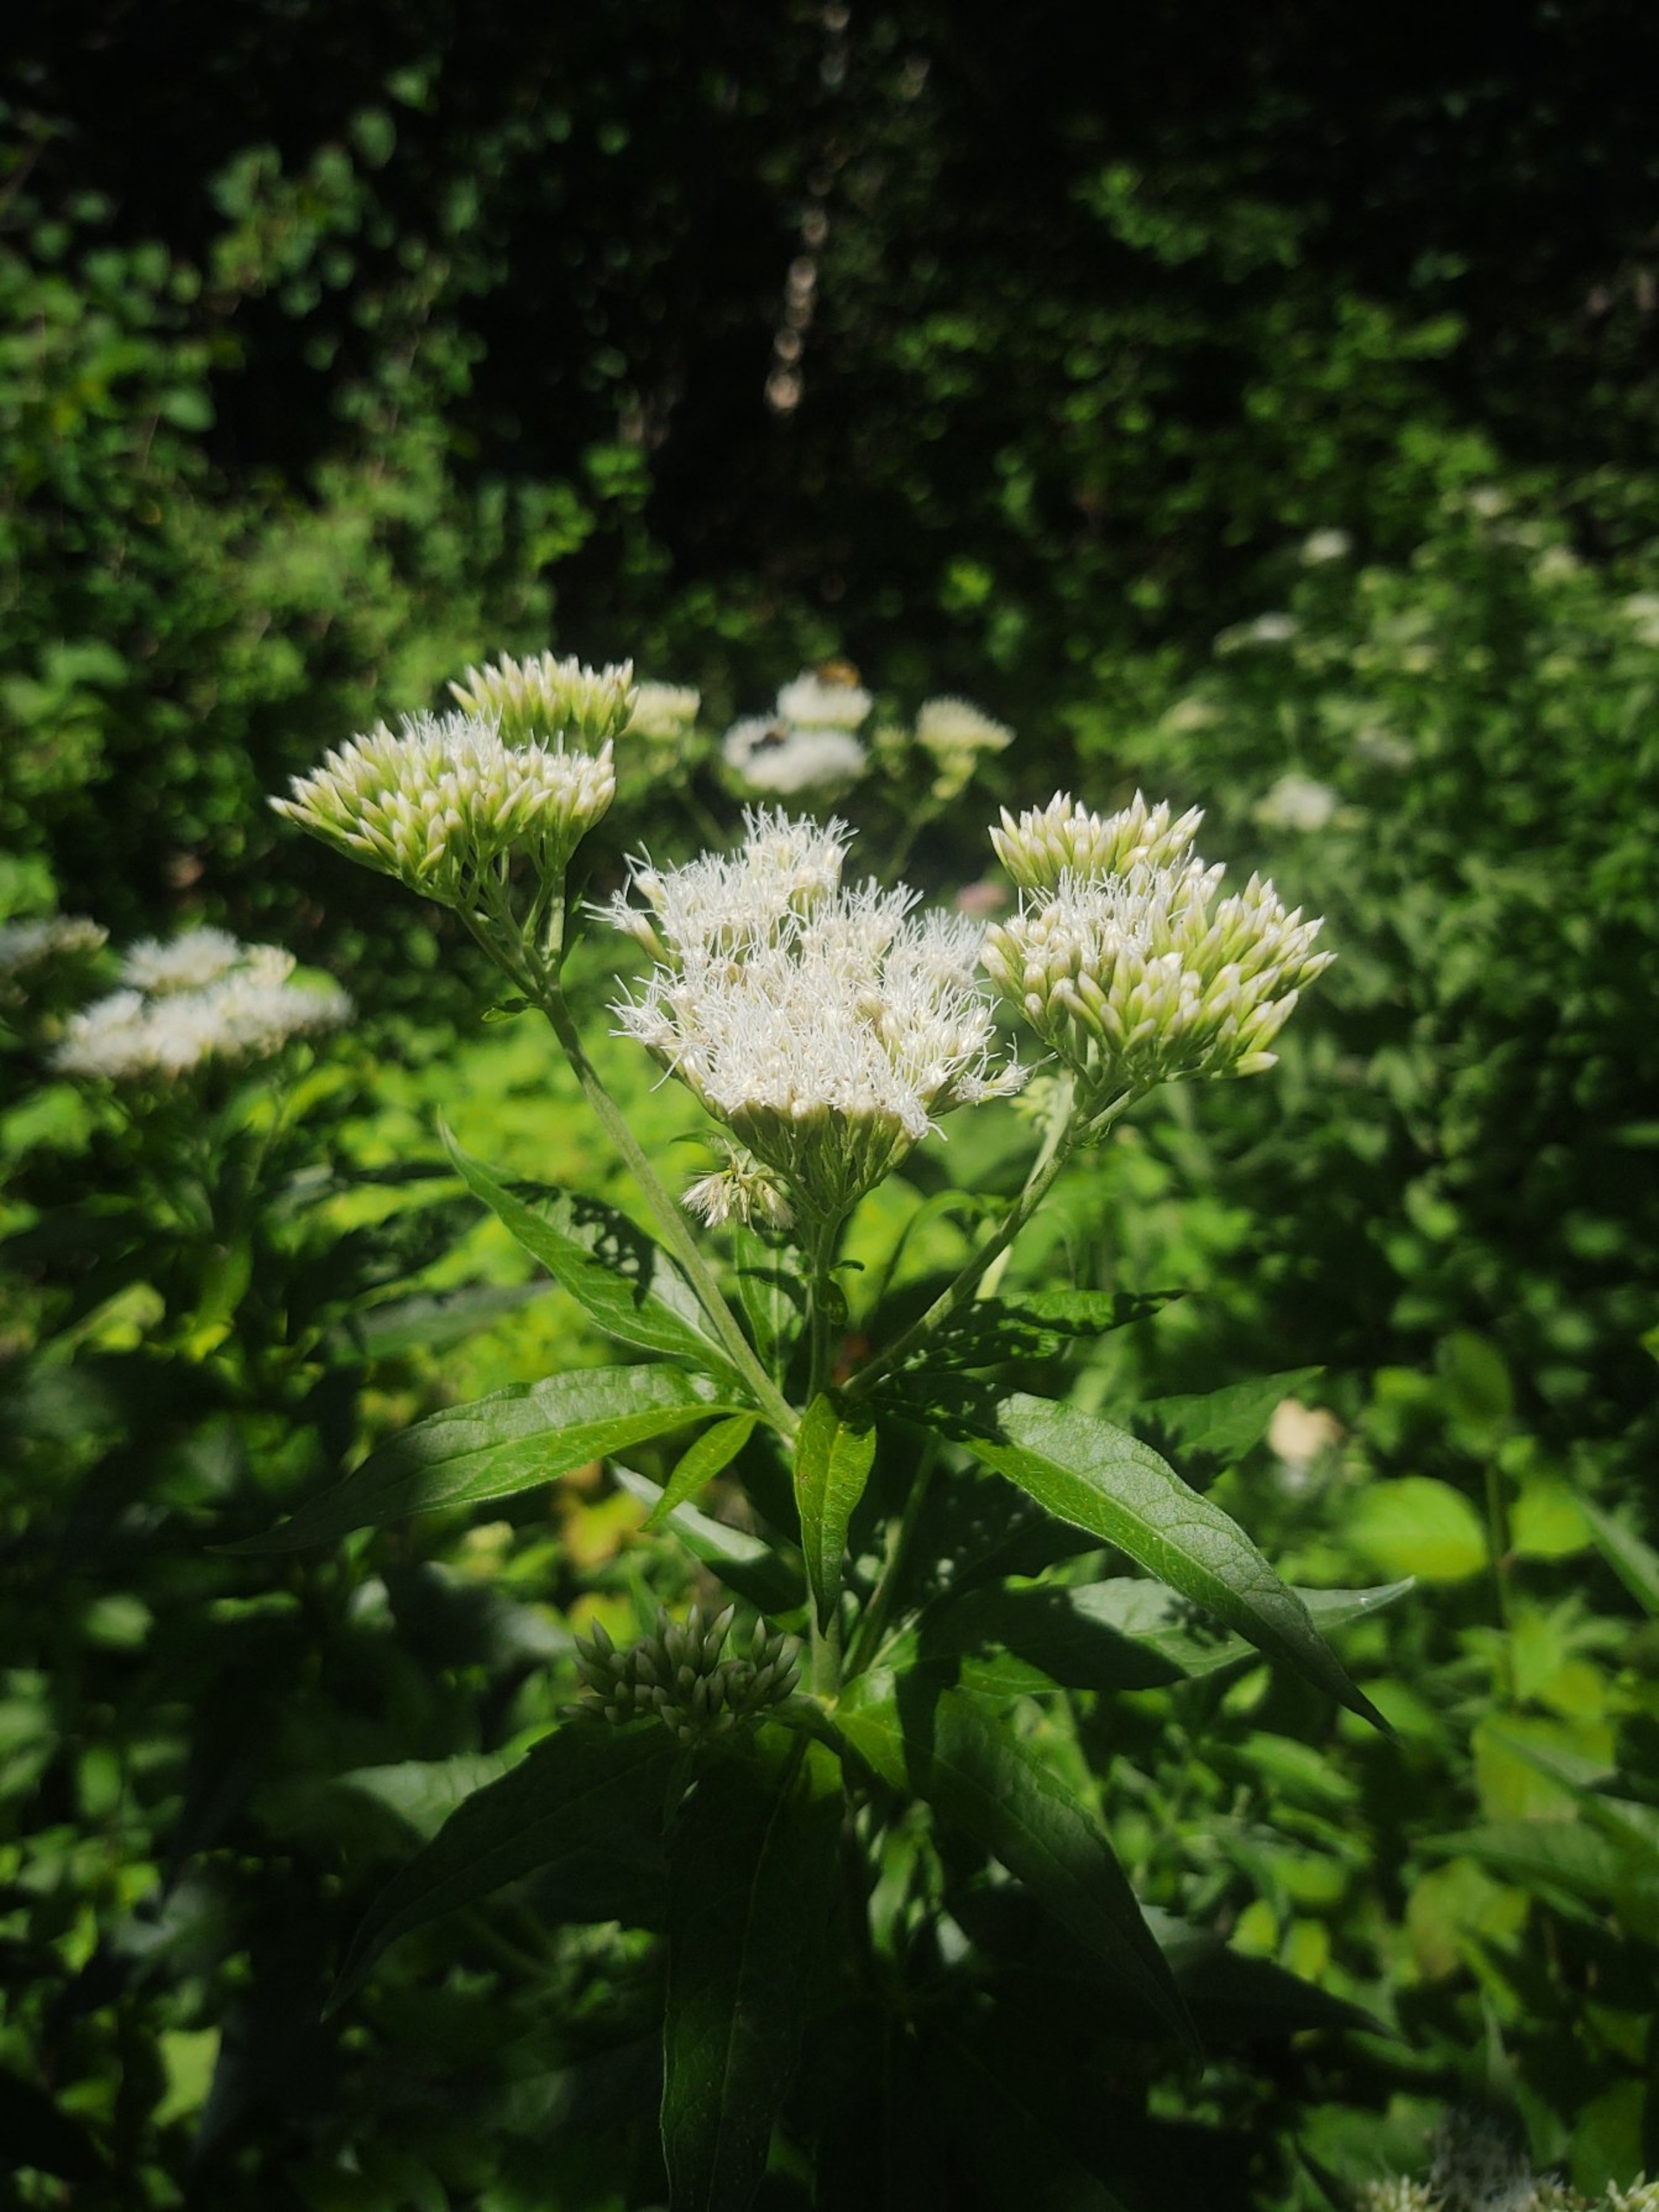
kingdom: Plantae
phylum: Tracheophyta
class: Magnoliopsida
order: Asterales
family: Asteraceae
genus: Eupatorium
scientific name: Eupatorium cannabinum
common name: Hjortetrøst
